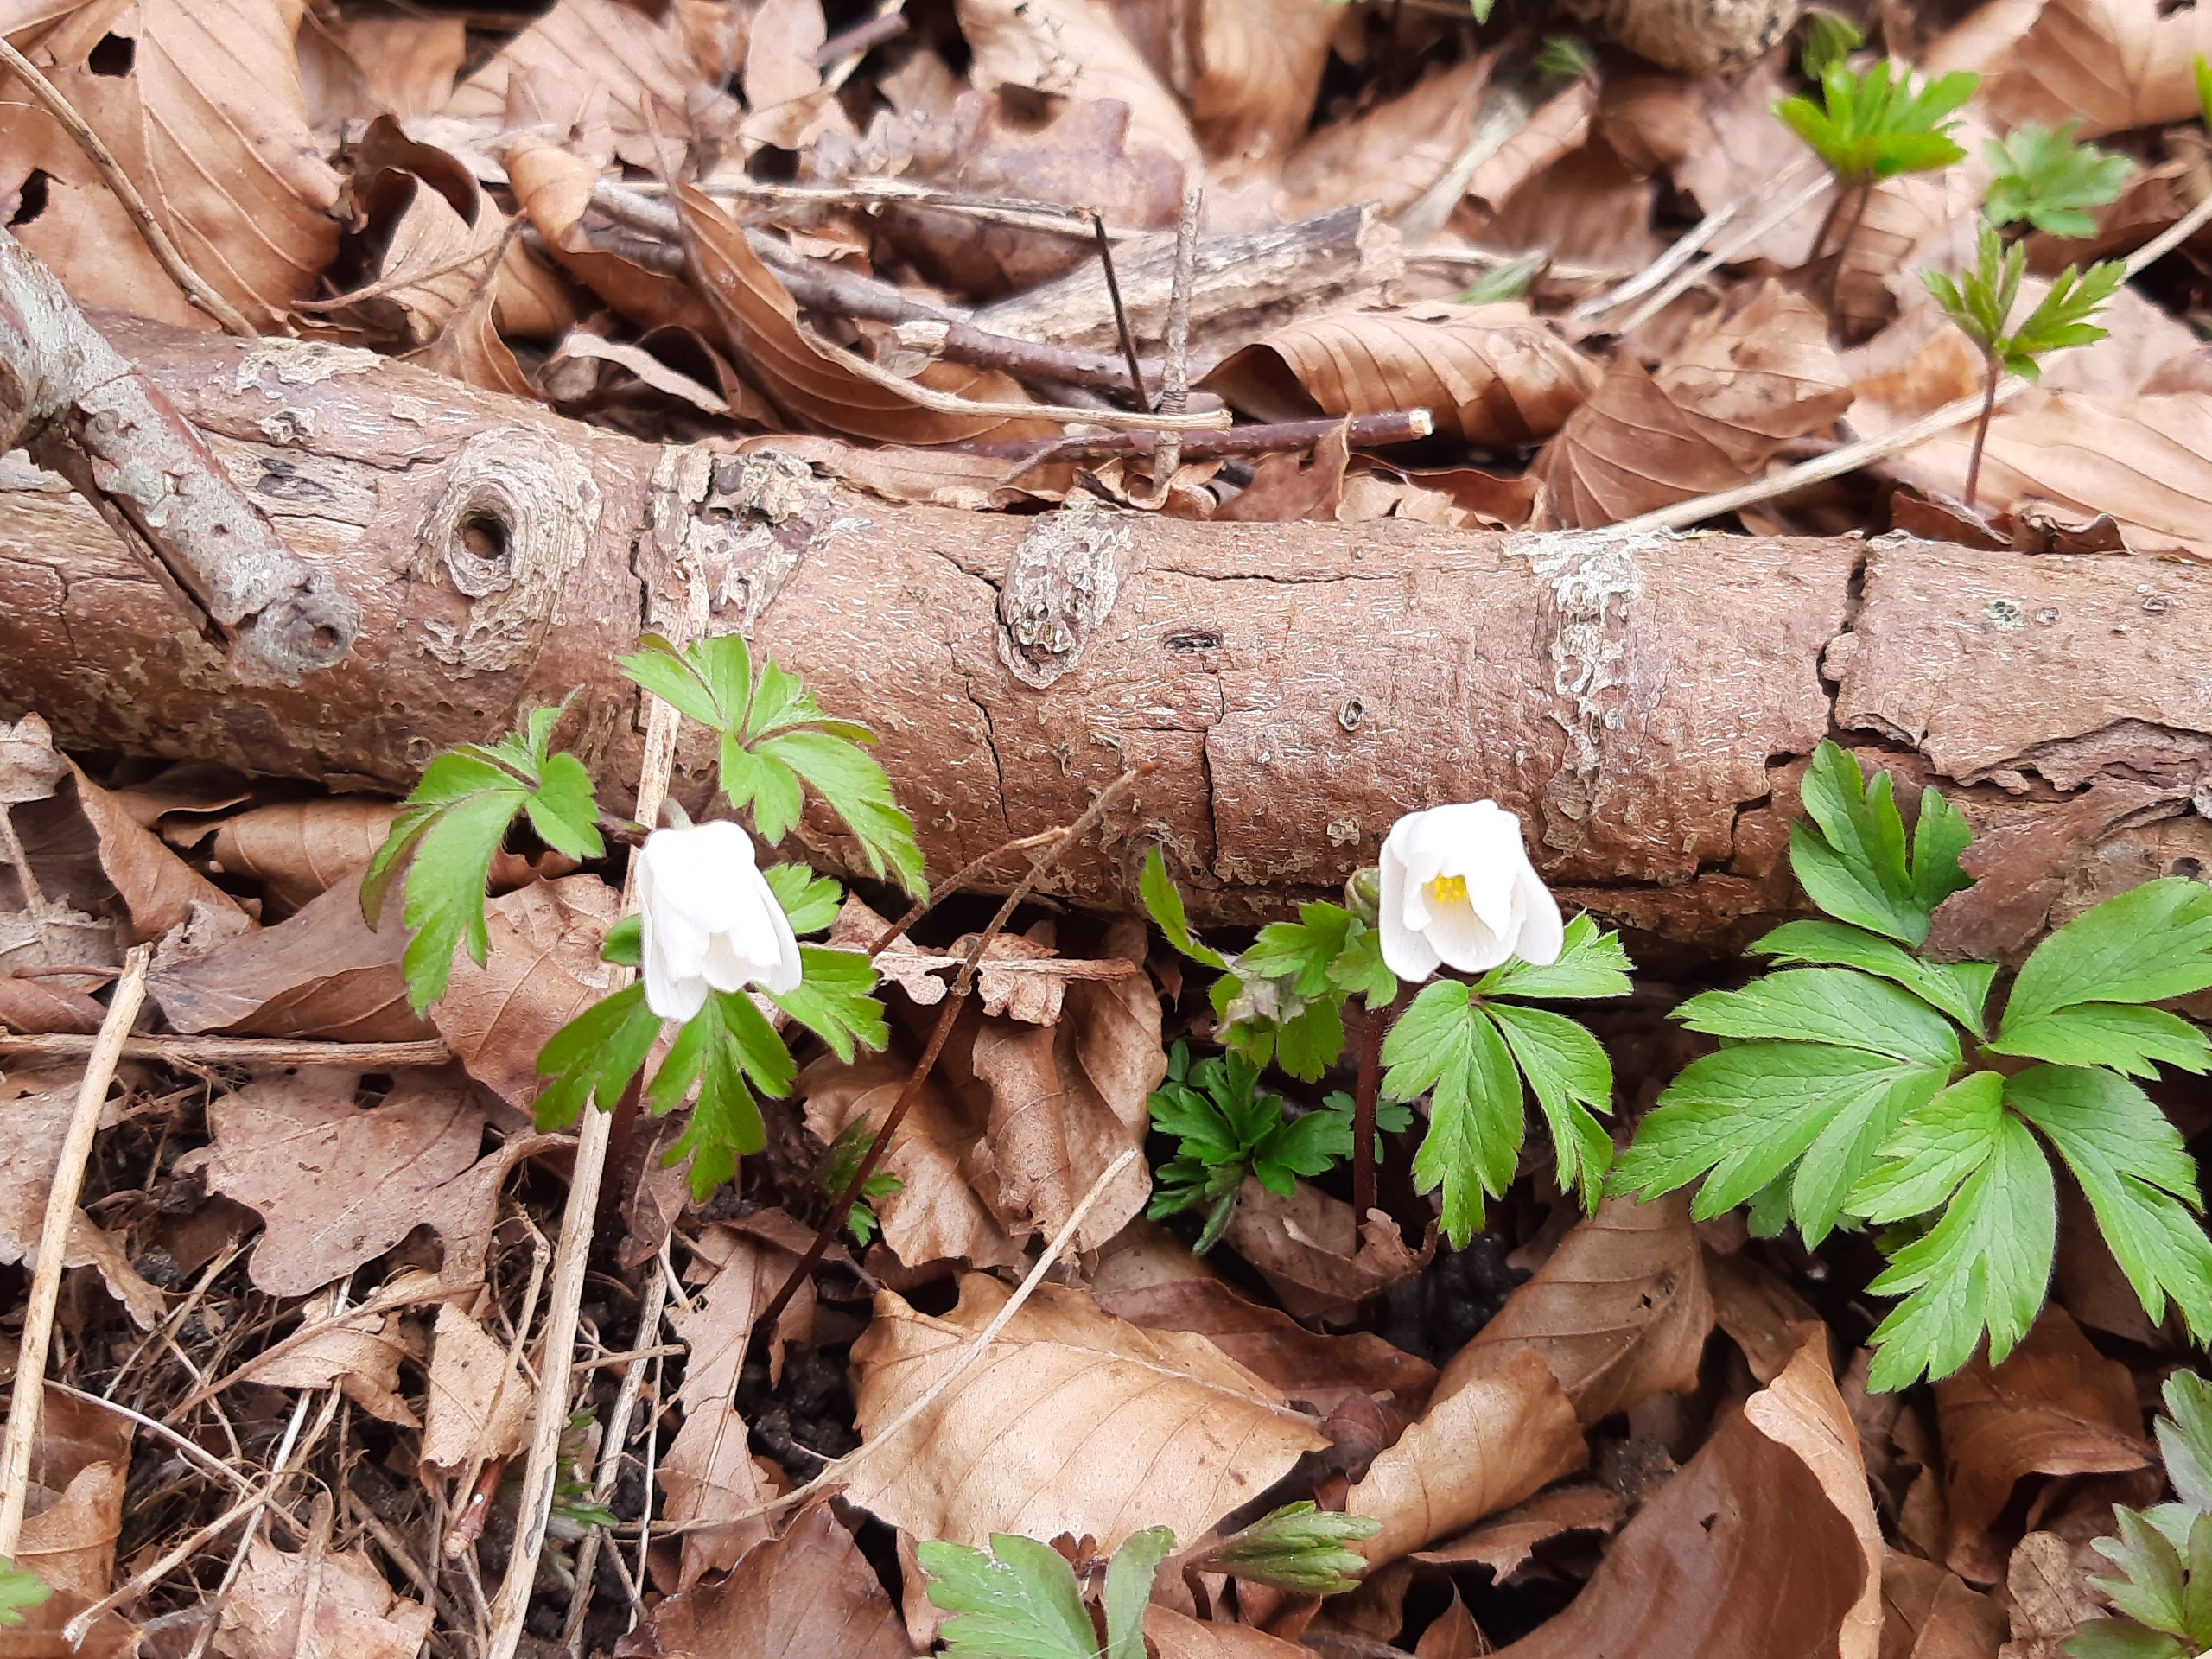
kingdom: Plantae
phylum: Tracheophyta
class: Magnoliopsida
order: Ranunculales
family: Ranunculaceae
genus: Anemone
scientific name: Anemone nemorosa
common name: Hvid anemone
